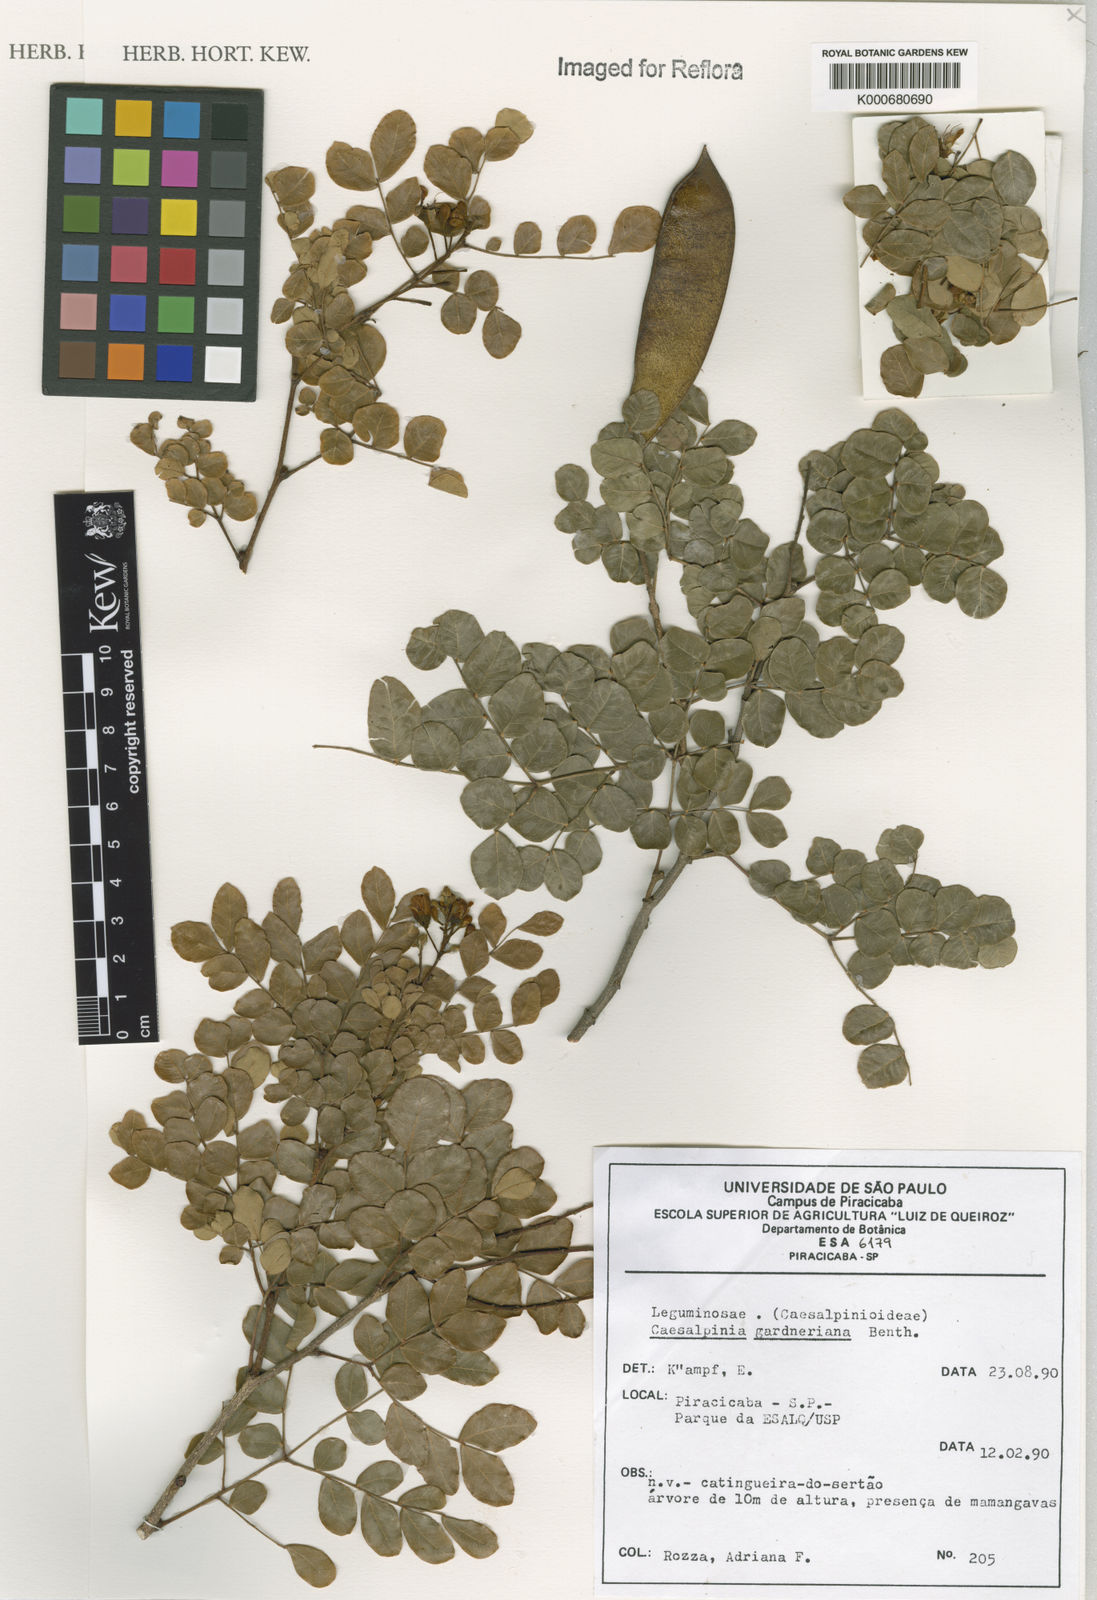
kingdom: Plantae
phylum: Tracheophyta
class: Magnoliopsida
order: Fabales
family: Fabaceae
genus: Cenostigma
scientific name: Cenostigma nordestinum
